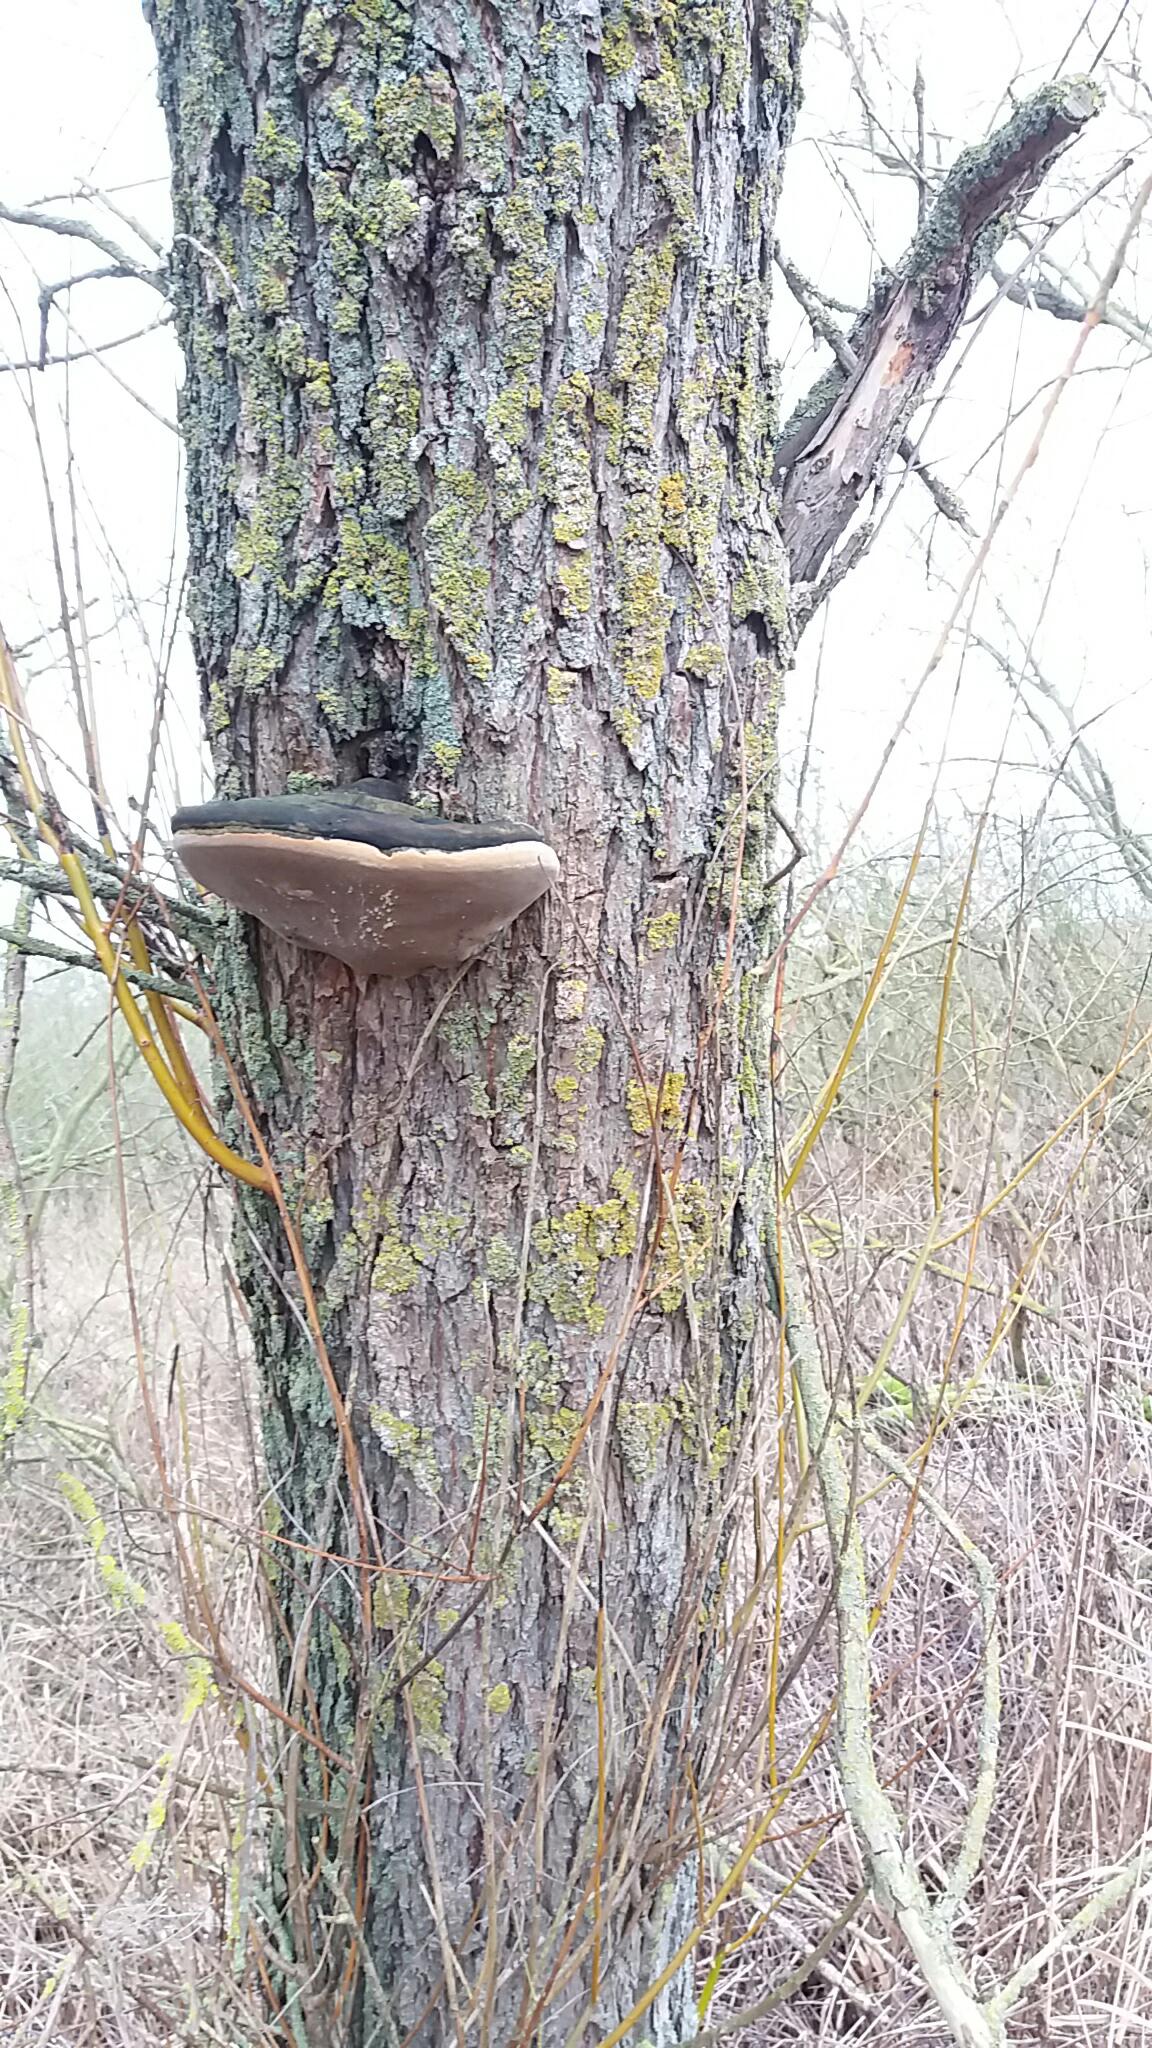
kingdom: Fungi
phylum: Basidiomycota
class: Agaricomycetes
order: Hymenochaetales
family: Hymenochaetaceae
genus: Phellinus
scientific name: Phellinus igniarius
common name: almindelig ildporesvamp
